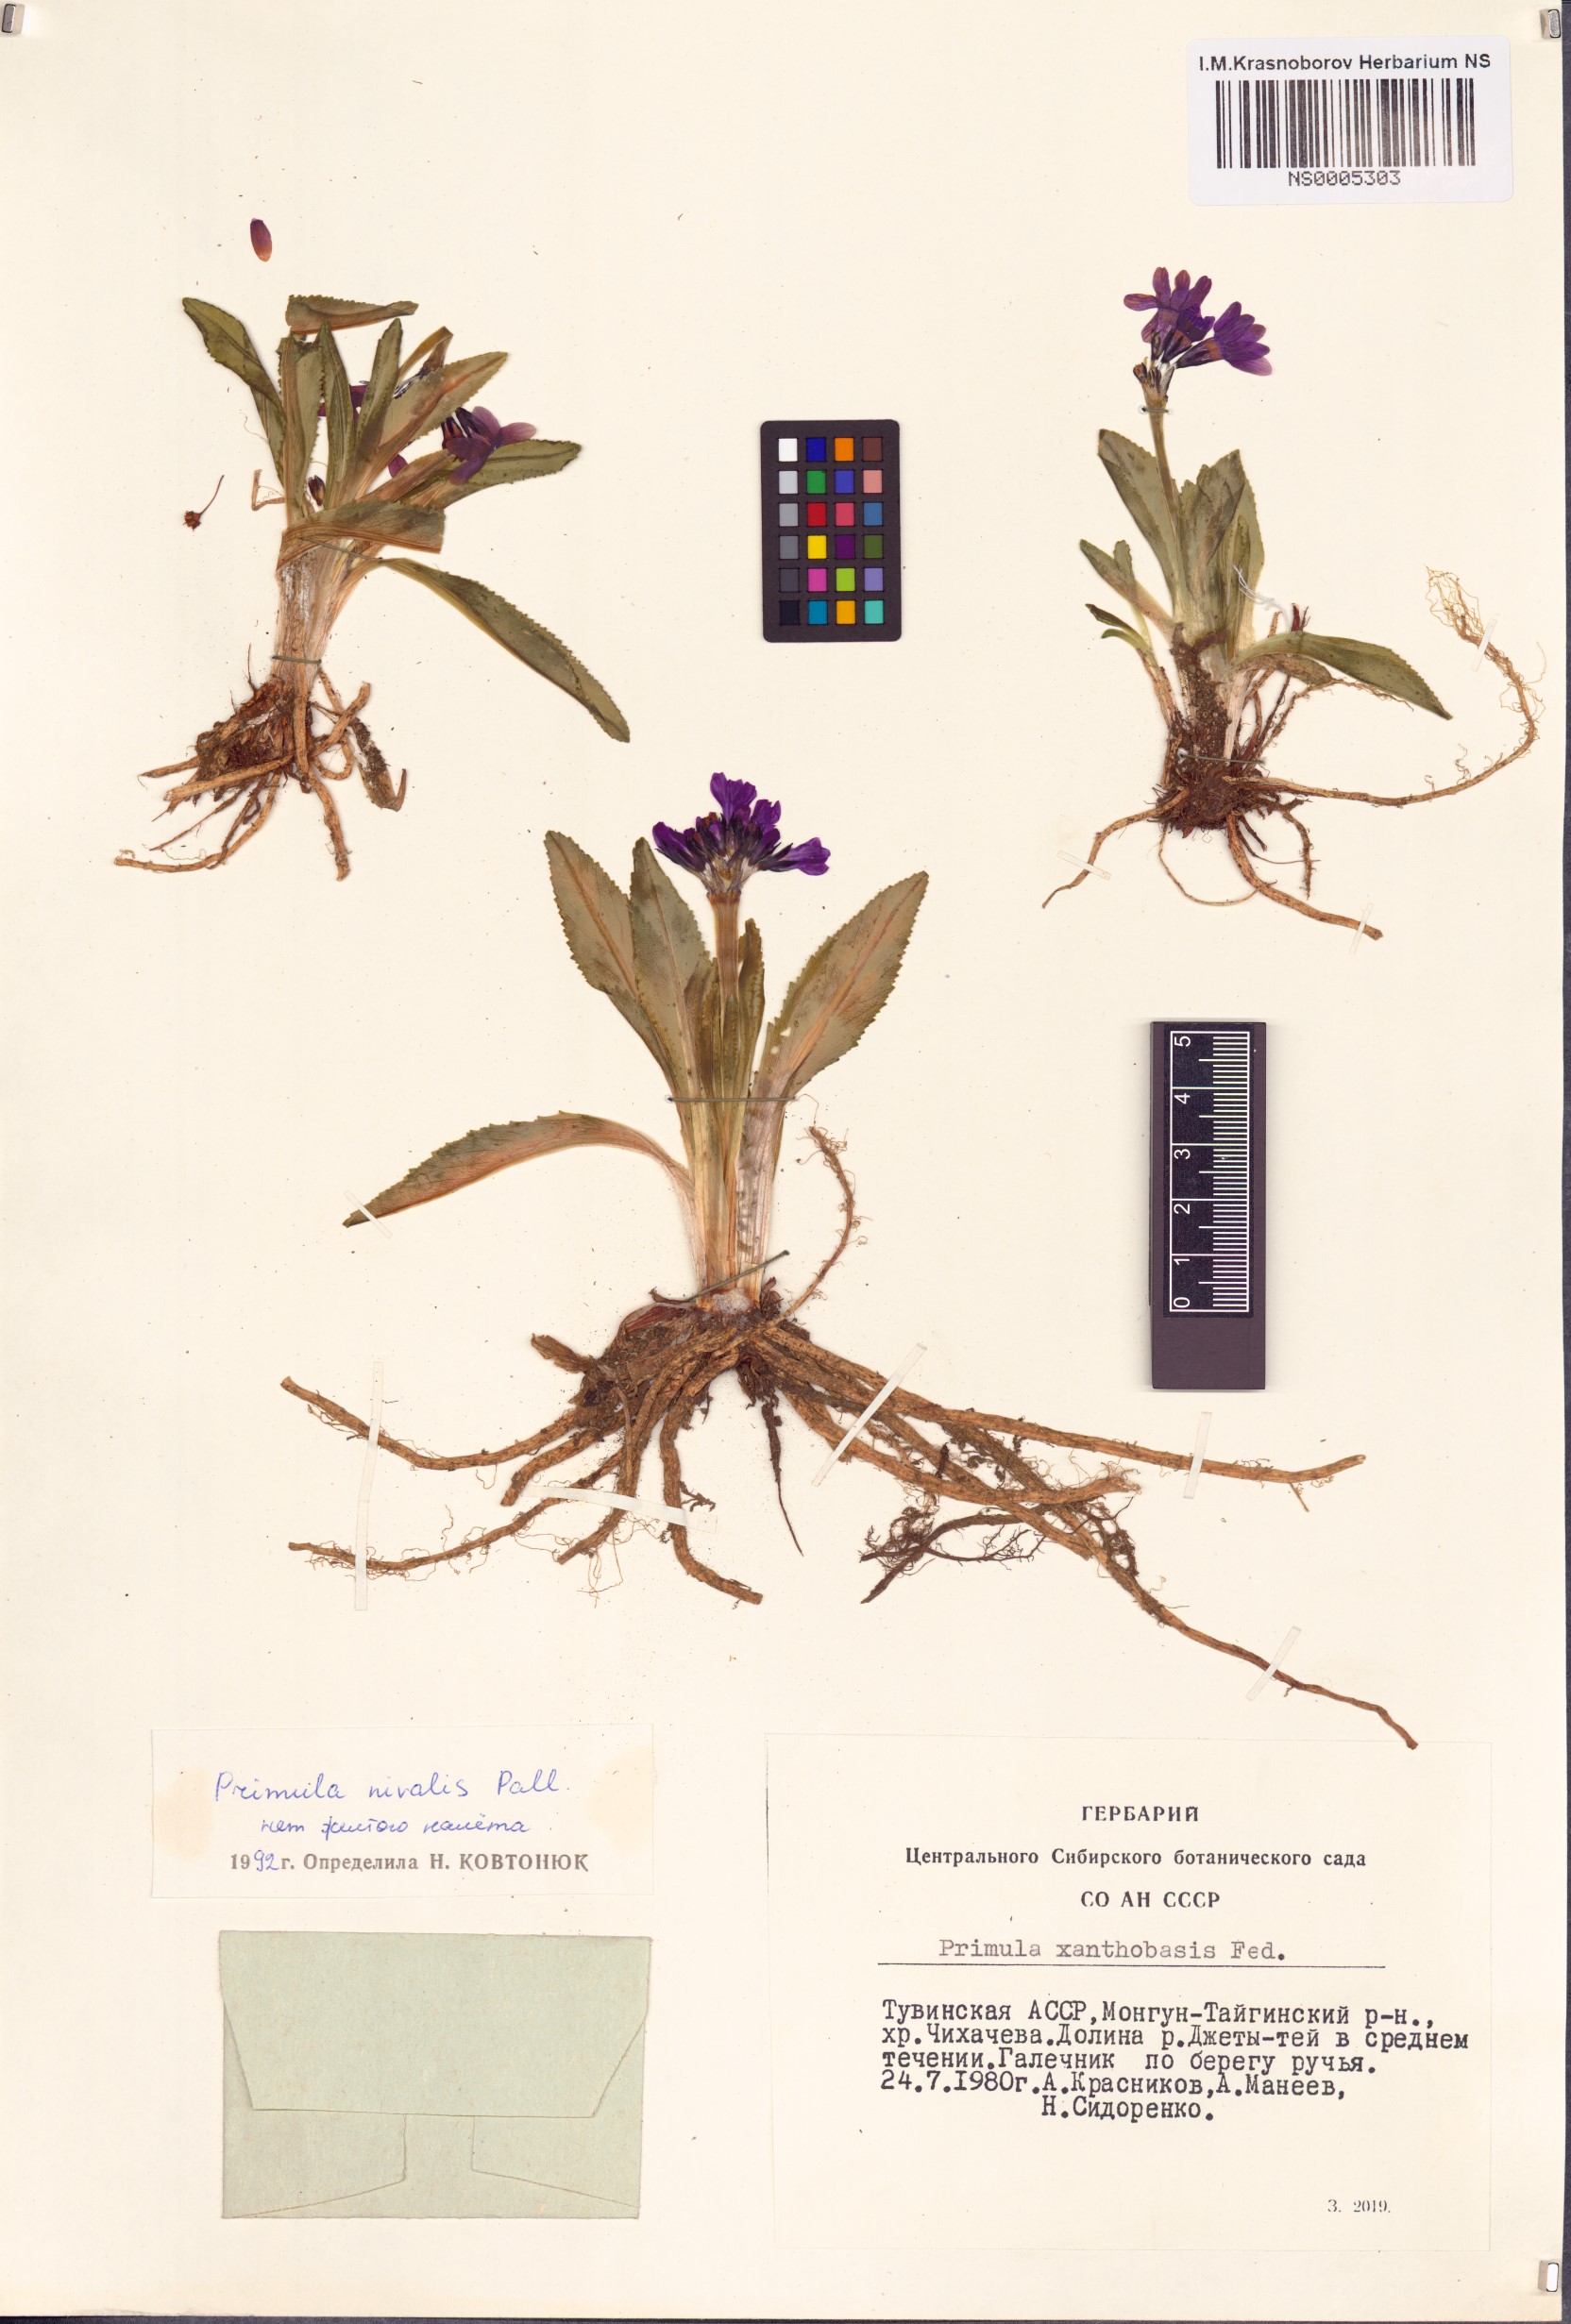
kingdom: Plantae
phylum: Tracheophyta
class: Magnoliopsida
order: Ericales
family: Primulaceae
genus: Primula
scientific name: Primula nivalis
